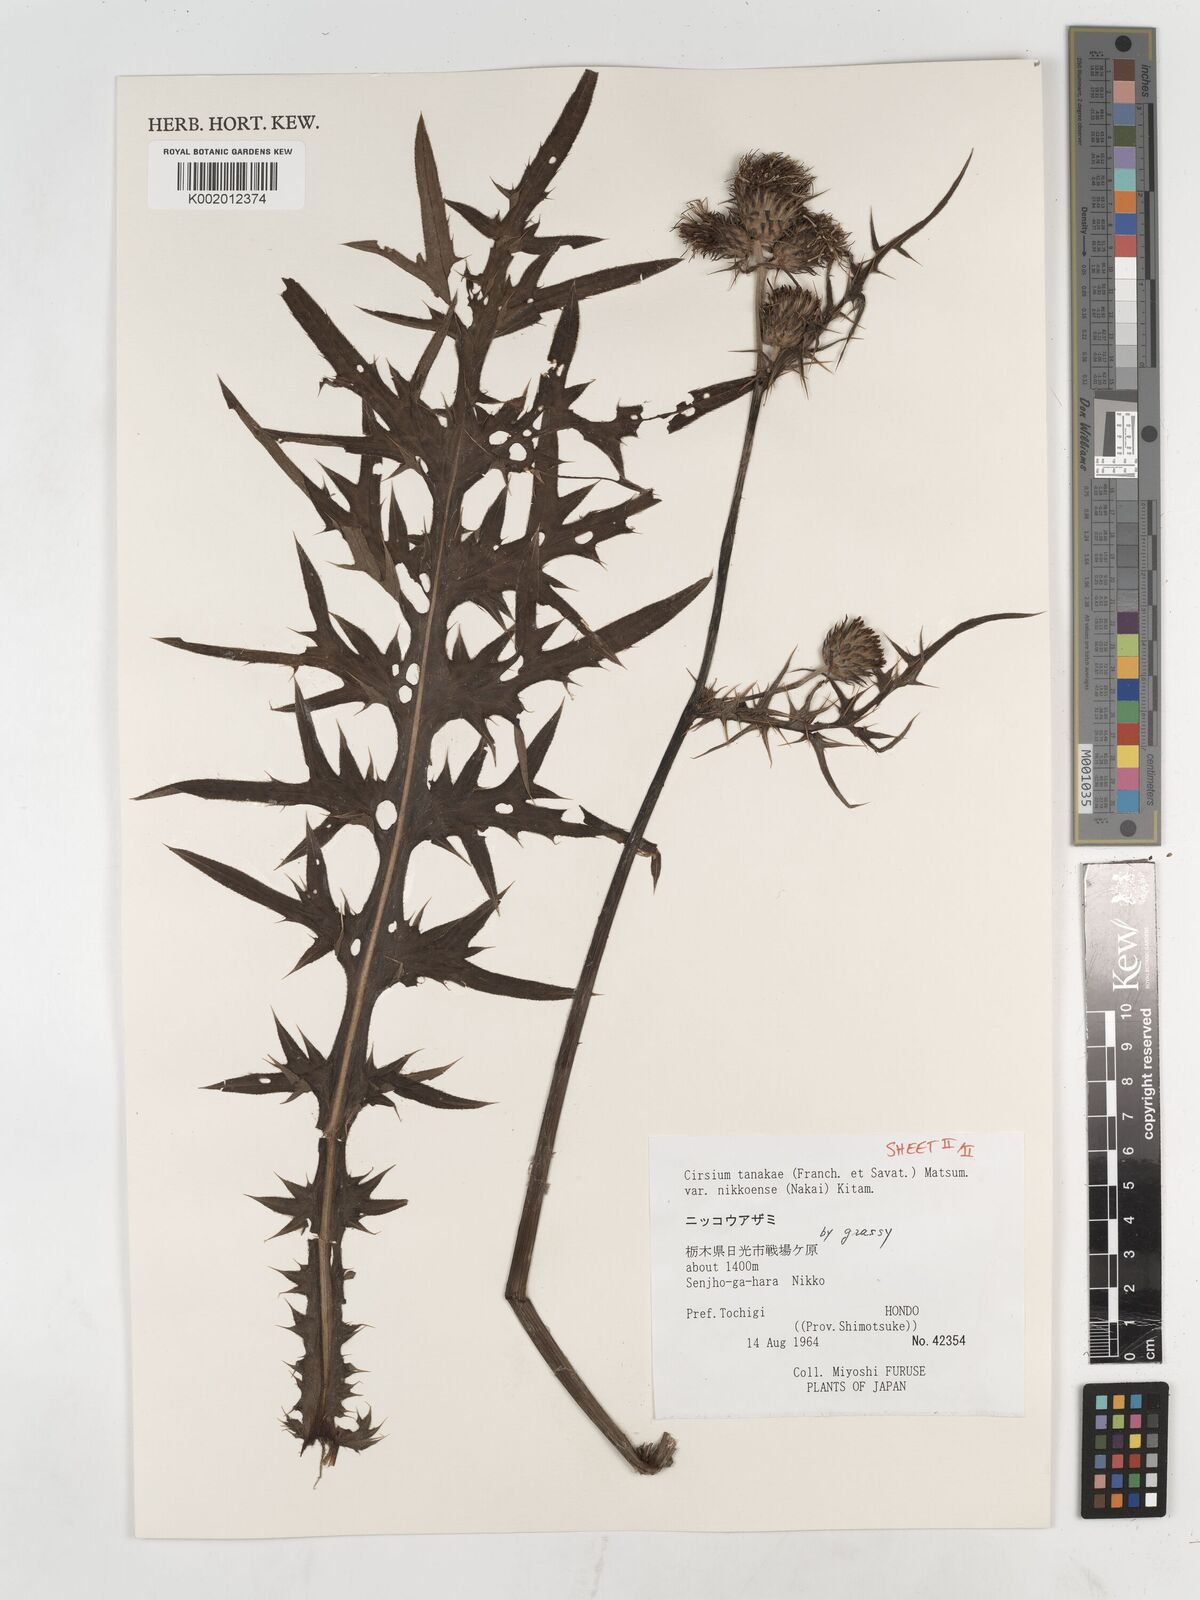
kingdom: Plantae
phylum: Tracheophyta
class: Magnoliopsida
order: Asterales
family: Asteraceae
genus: Cirsium
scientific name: Cirsium nipponicum
